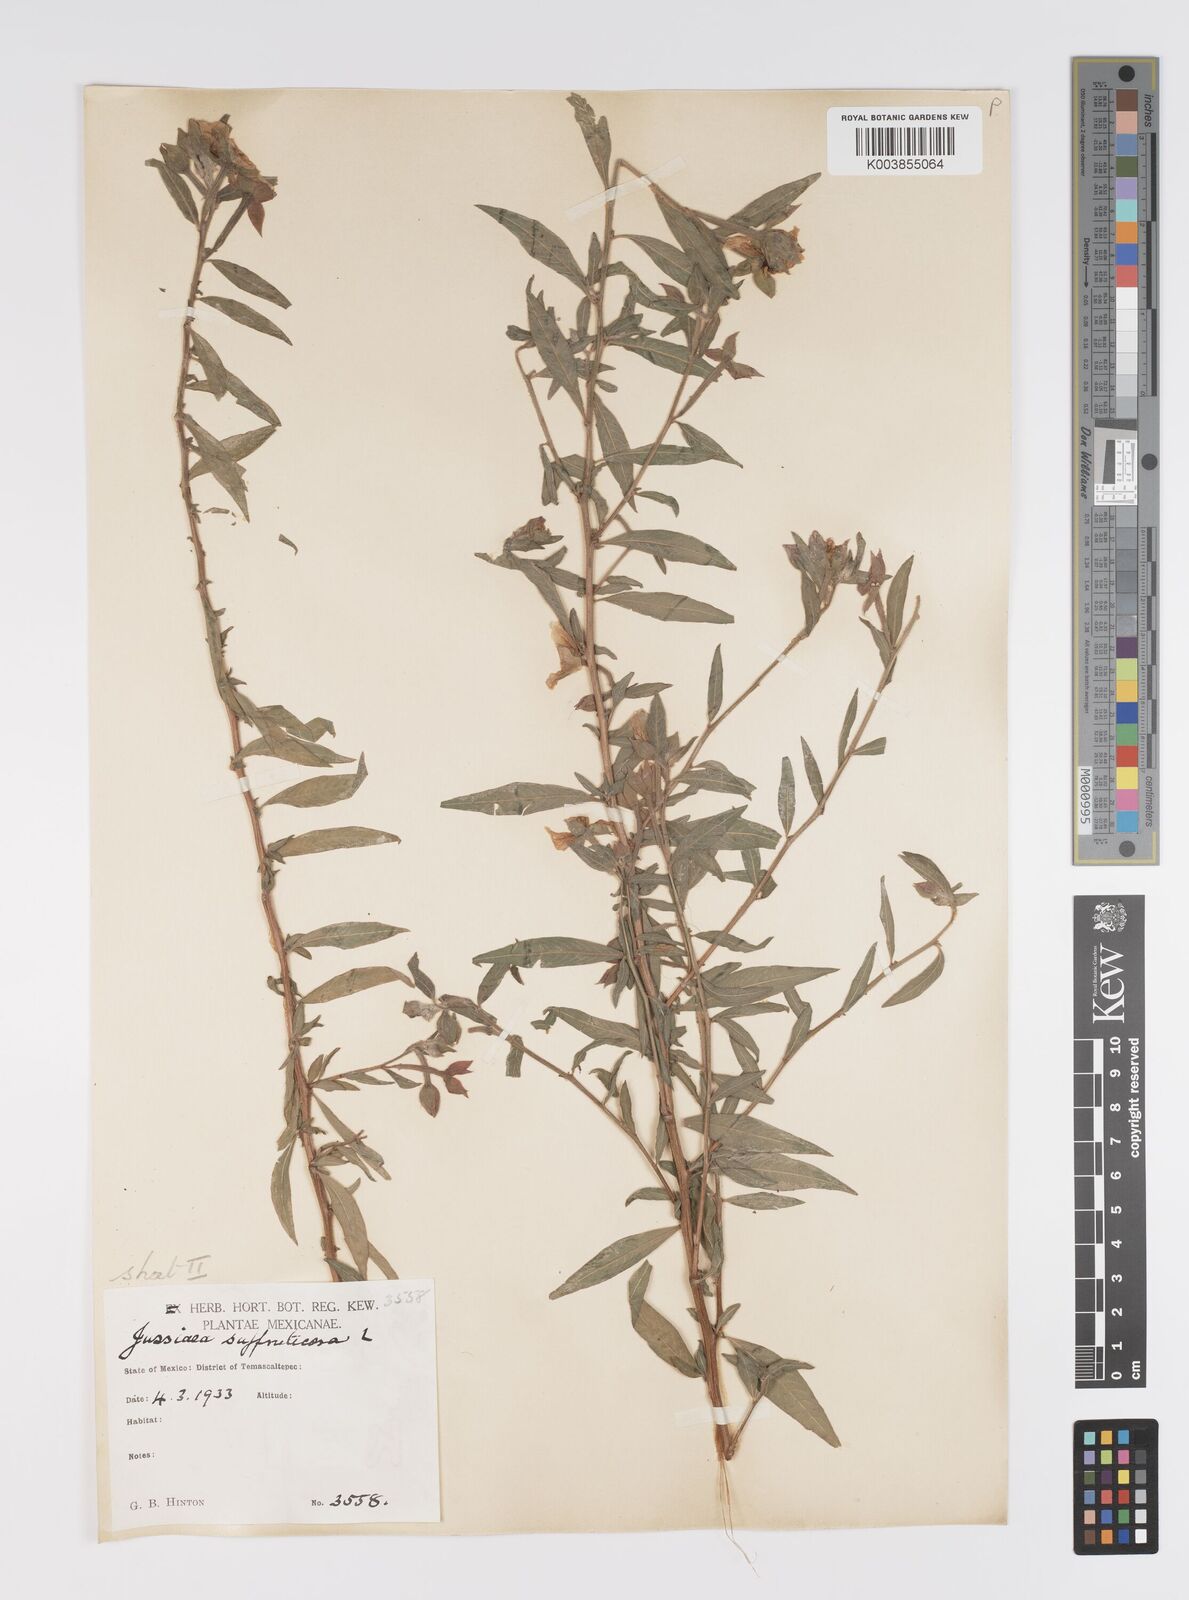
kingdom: Plantae
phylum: Tracheophyta
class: Magnoliopsida
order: Myrtales
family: Onagraceae
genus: Ludwigia
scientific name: Ludwigia octovalvis
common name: Water-primrose
